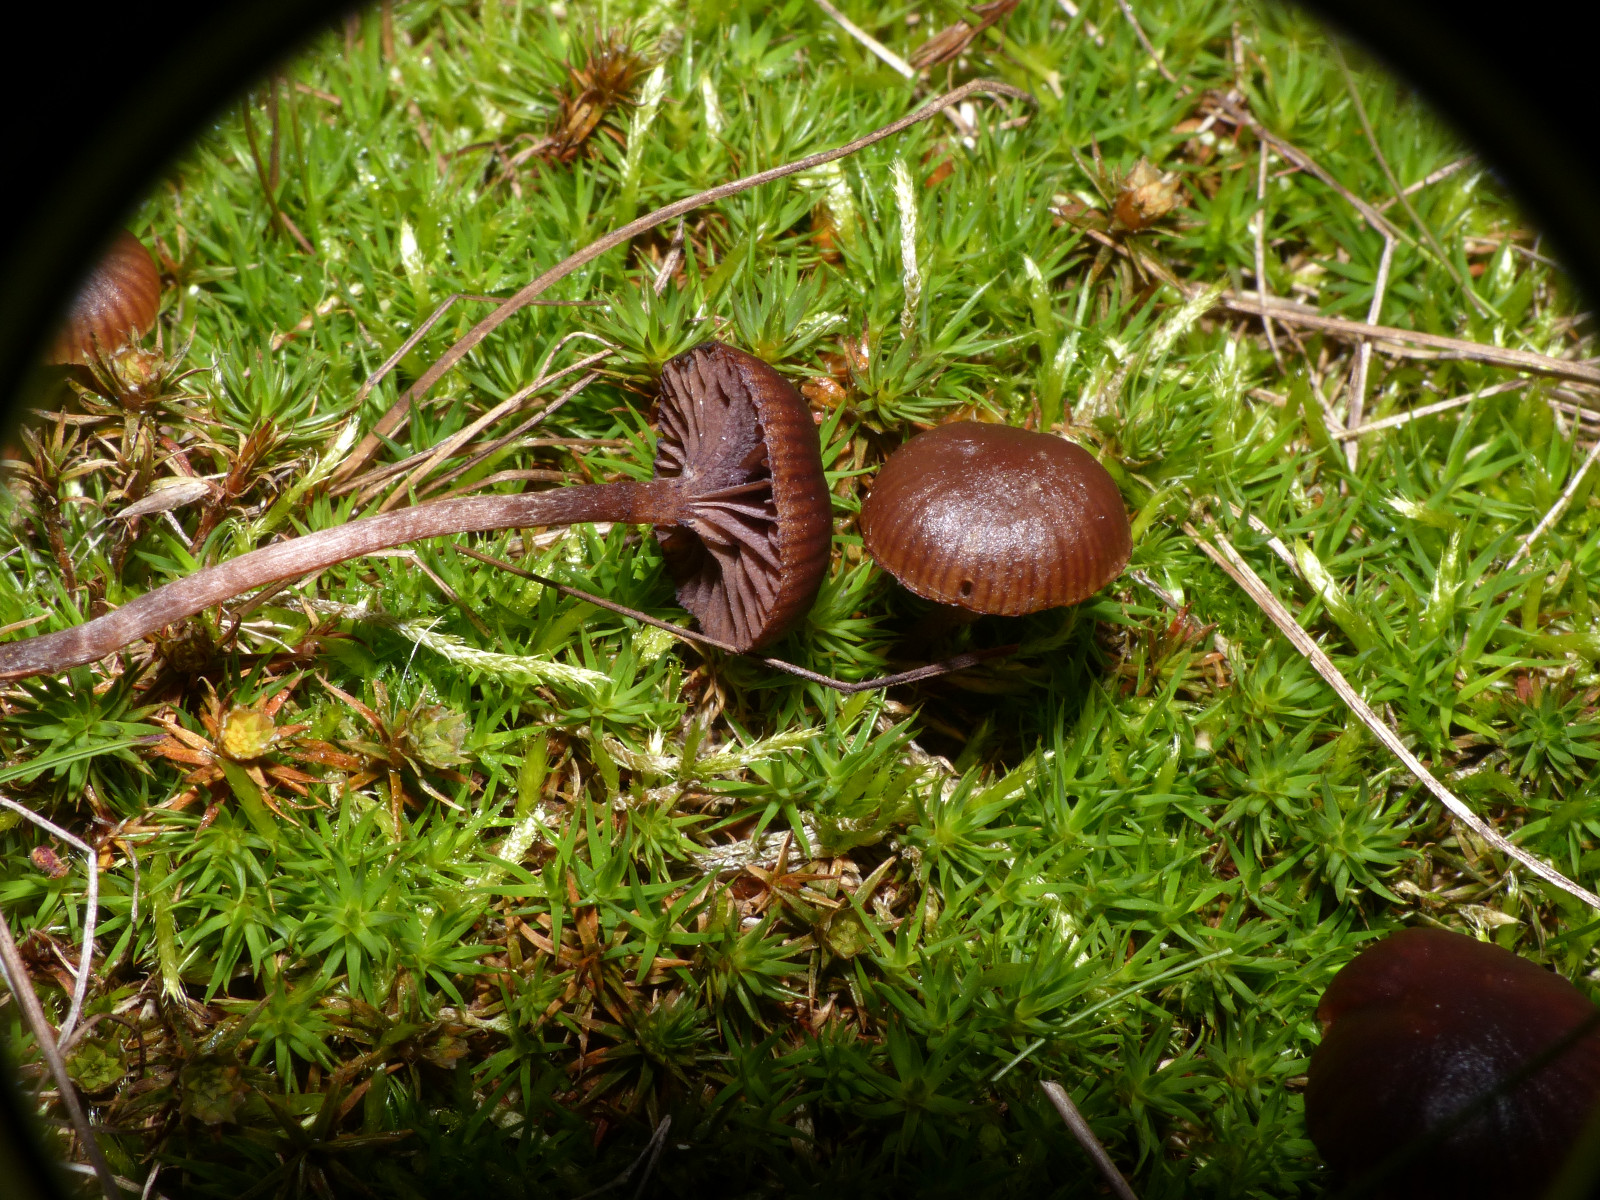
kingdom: Fungi
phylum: Basidiomycota
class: Agaricomycetes
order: Agaricales
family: Strophariaceae
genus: Deconica
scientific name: Deconica montana
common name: rødbrun stråhat
